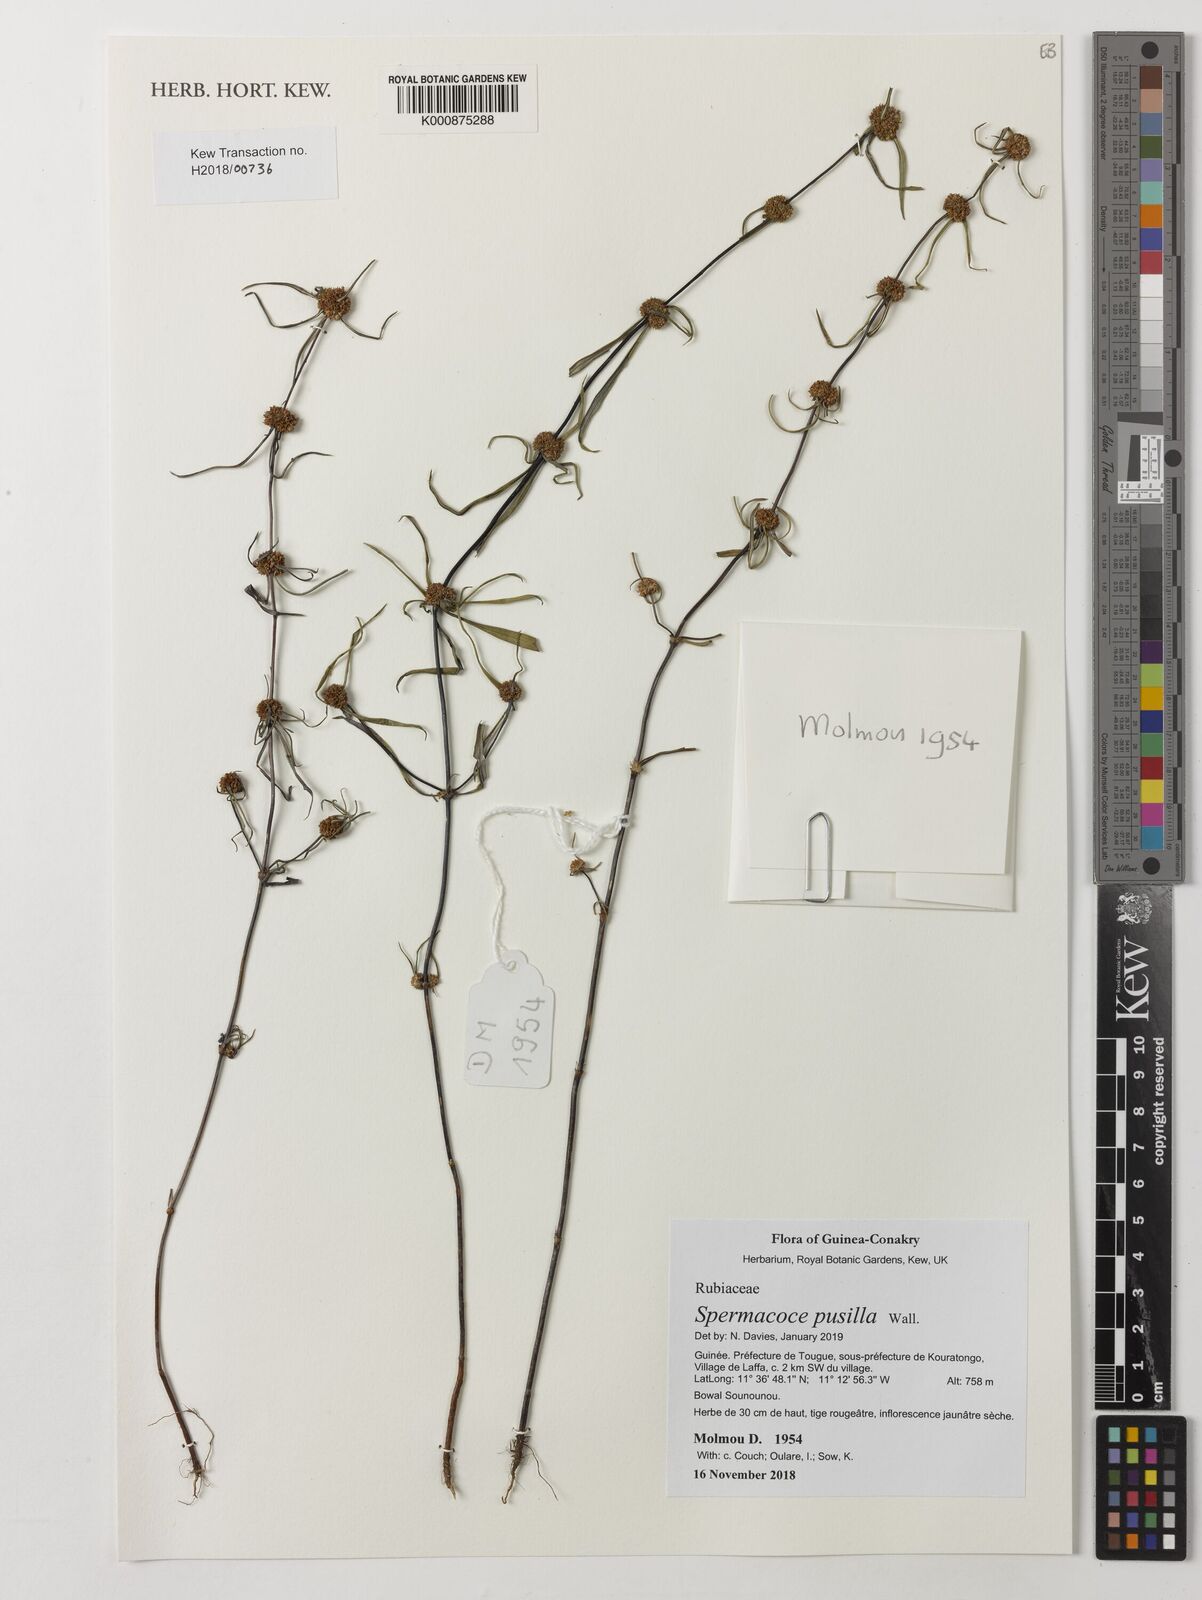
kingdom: Plantae
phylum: Tracheophyta
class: Magnoliopsida
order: Gentianales
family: Rubiaceae
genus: Spermacoce
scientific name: Spermacoce pusilla
